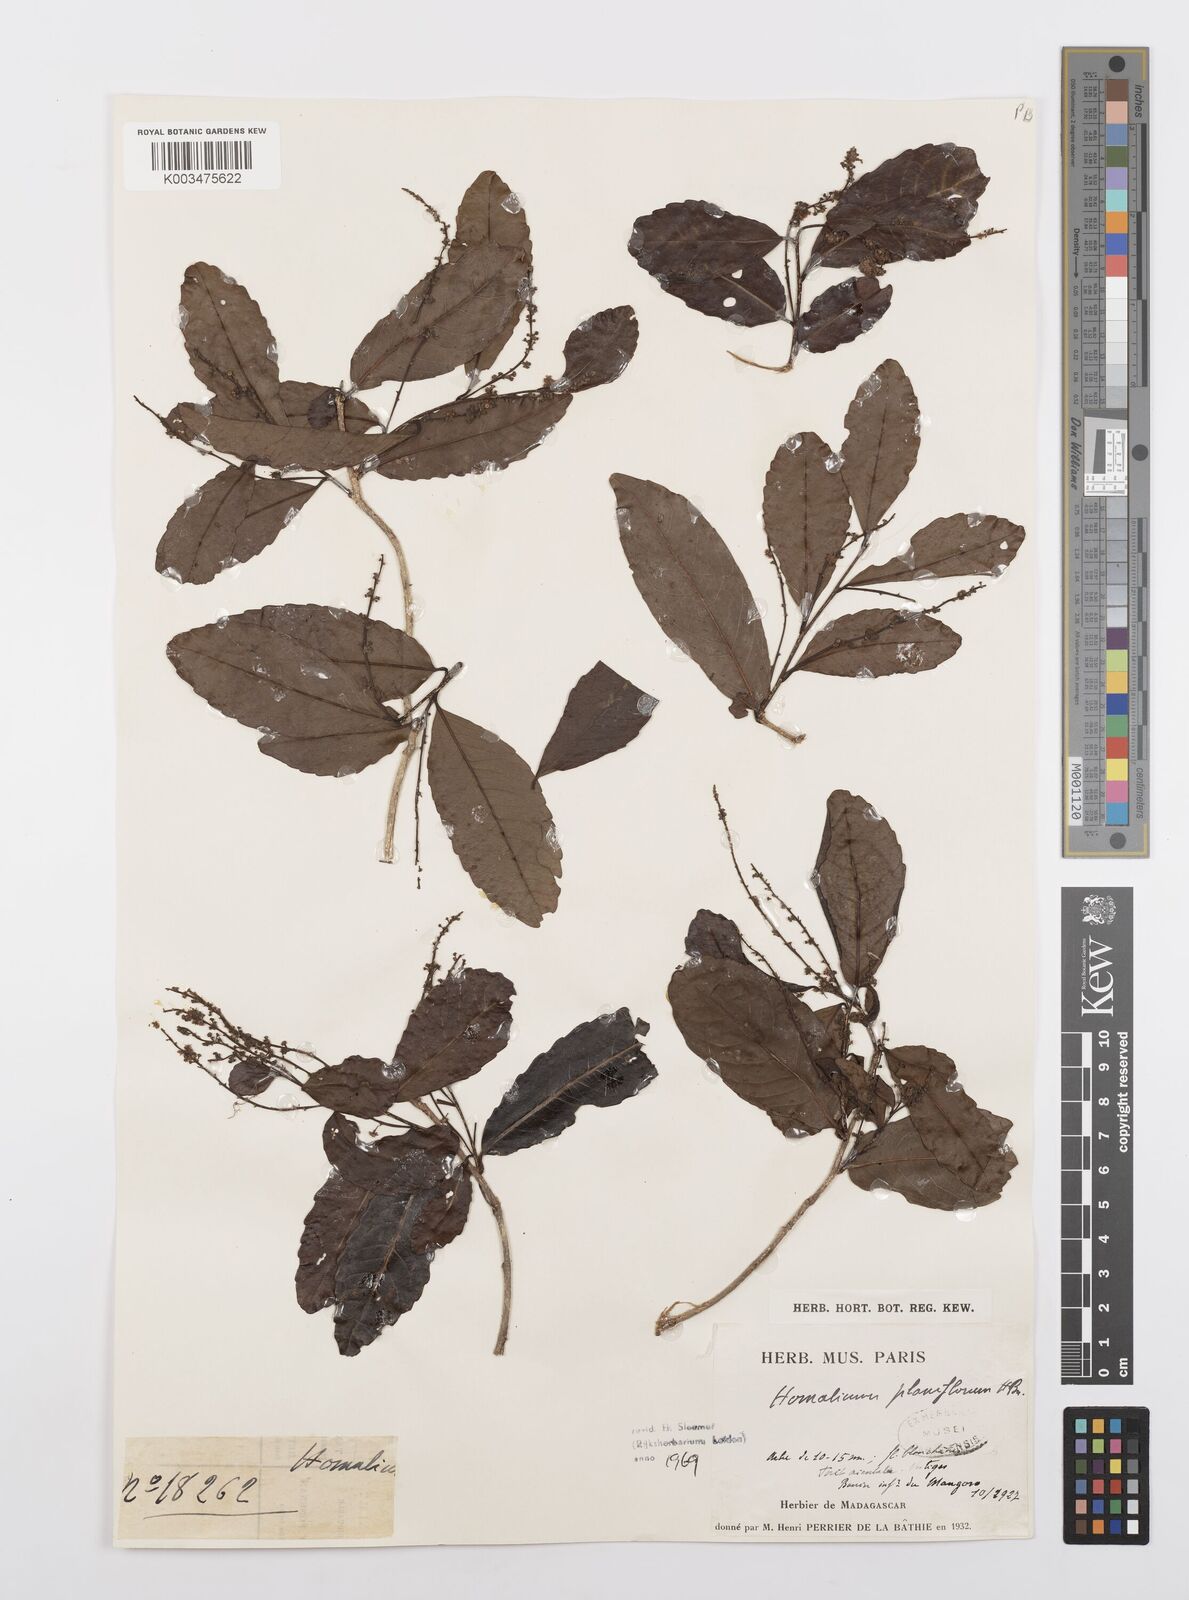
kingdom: Plantae
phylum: Tracheophyta
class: Magnoliopsida
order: Malpighiales
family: Salicaceae
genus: Homalium
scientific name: Homalium planiflorum
